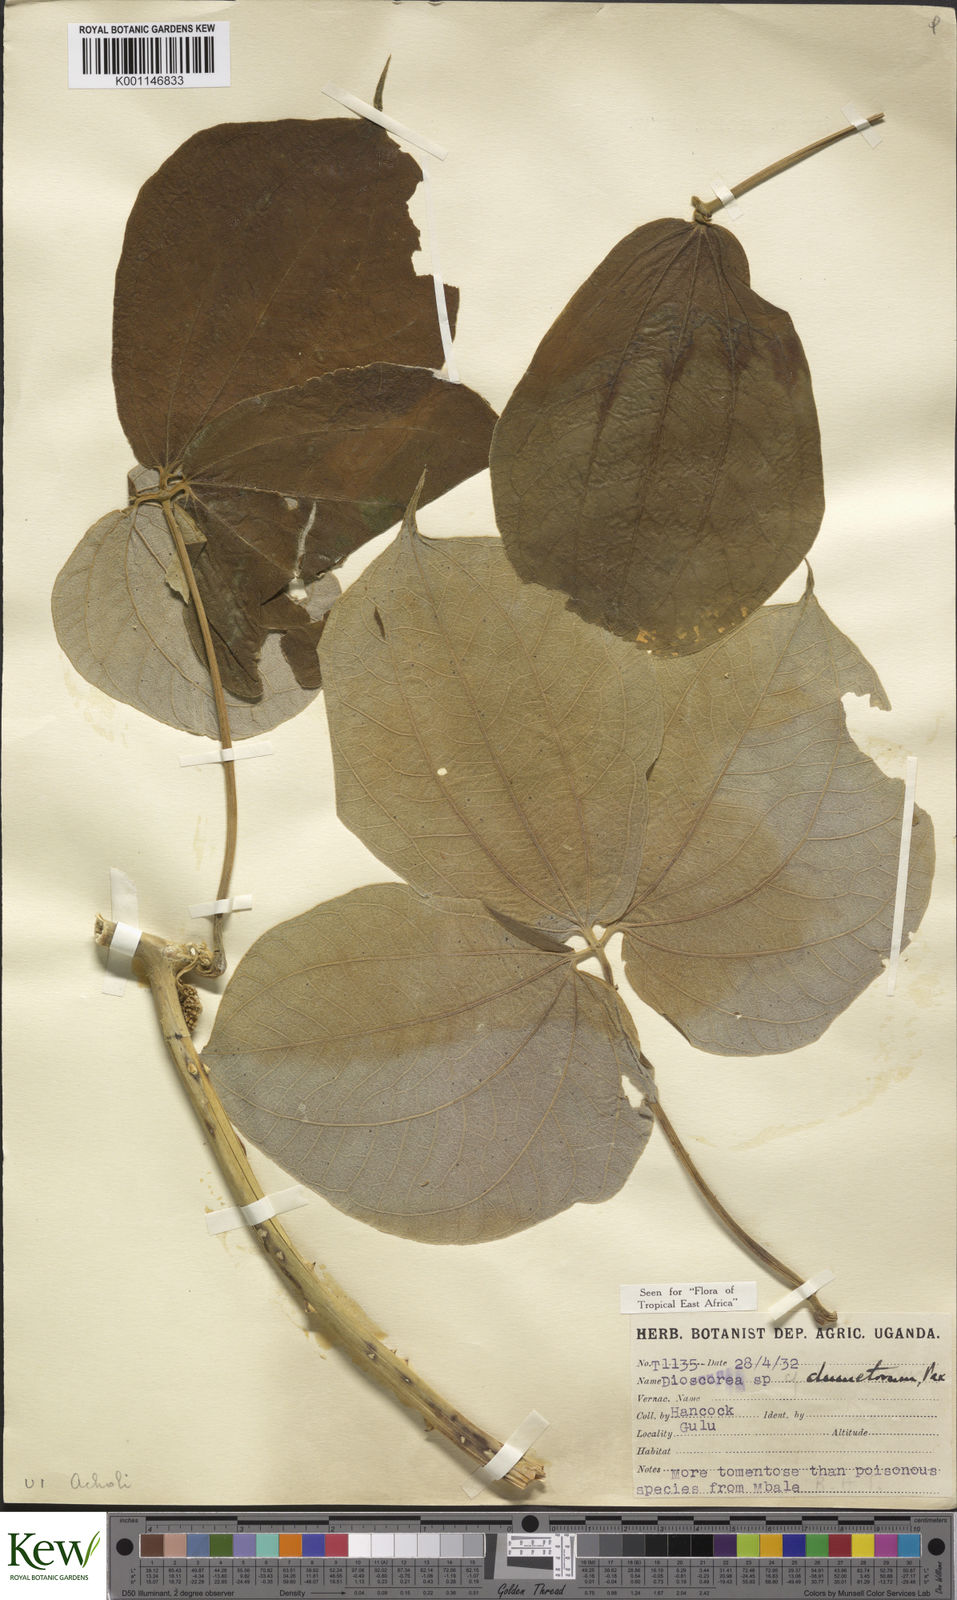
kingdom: Plantae
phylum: Tracheophyta
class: Liliopsida
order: Dioscoreales
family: Dioscoreaceae
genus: Dioscorea
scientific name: Dioscorea dumetorum
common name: African bitter yam
